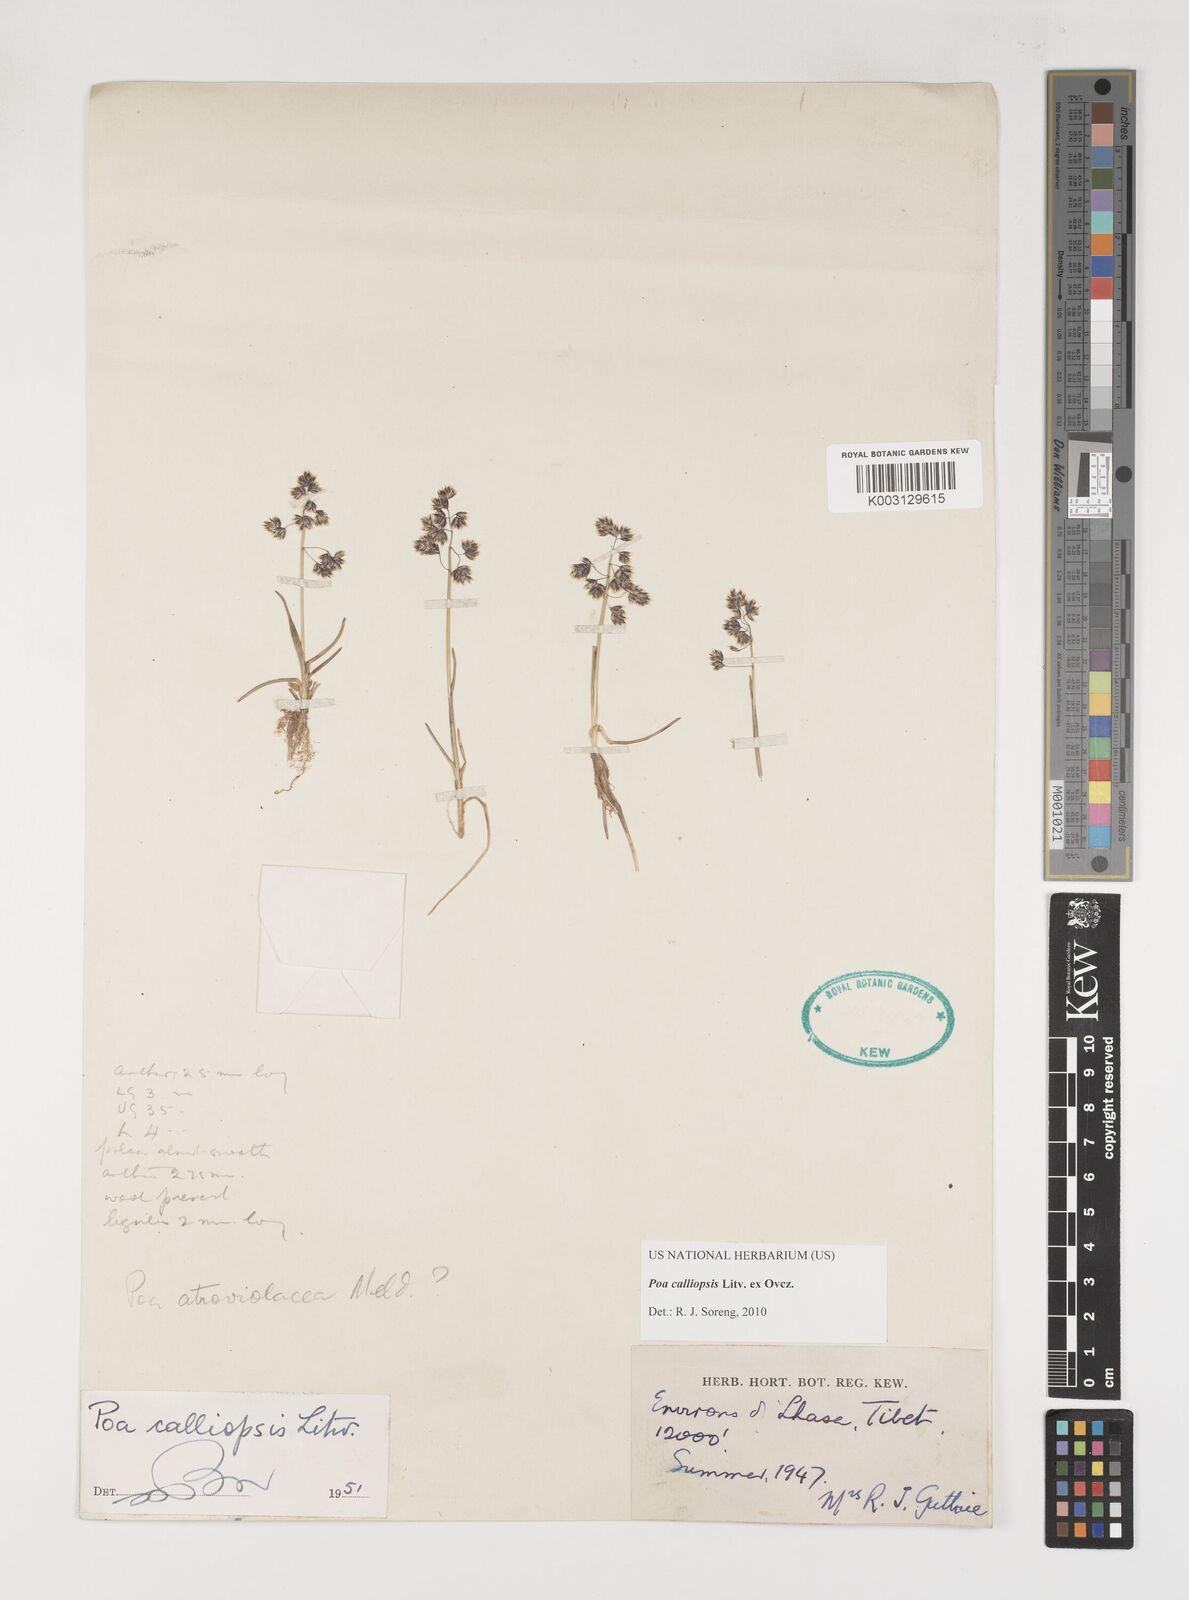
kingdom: Plantae
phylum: Tracheophyta
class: Liliopsida
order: Poales
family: Poaceae
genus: Poa
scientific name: Poa calliopsis
